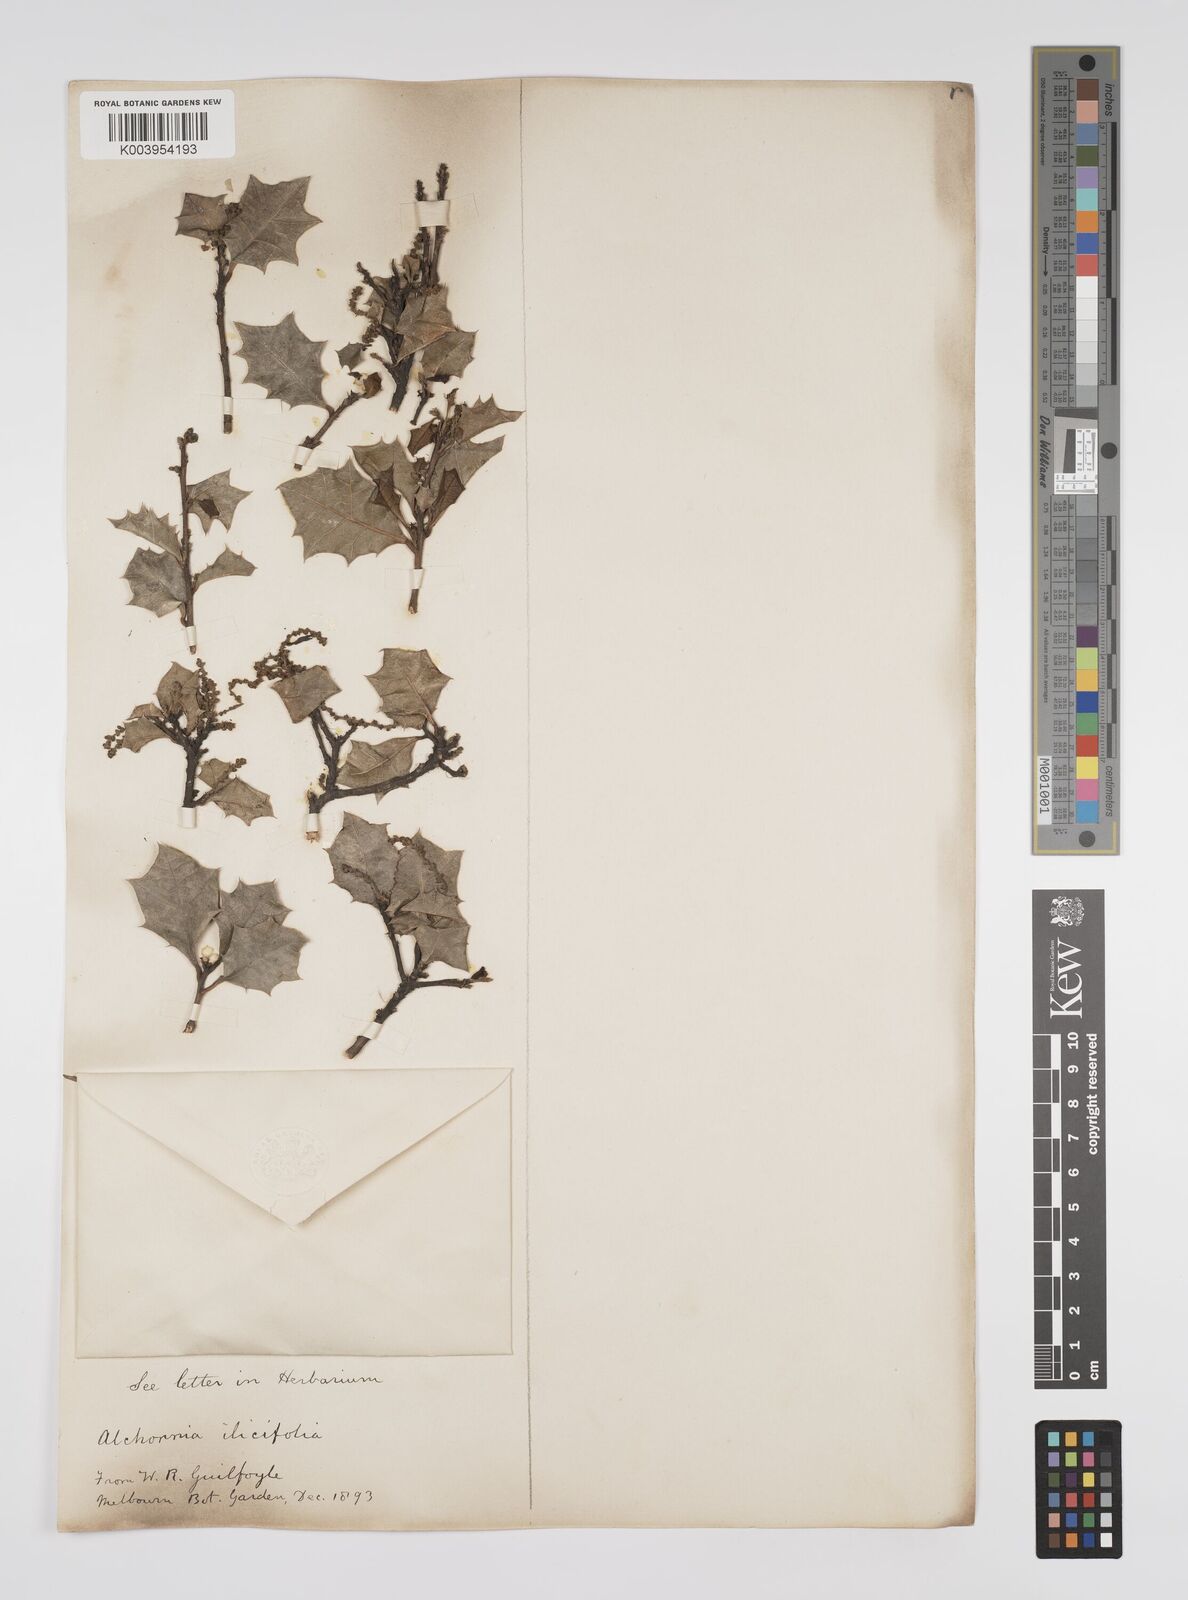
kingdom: Plantae
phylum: Tracheophyta
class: Magnoliopsida
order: Malpighiales
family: Euphorbiaceae
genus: Alchornea
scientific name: Alchornea ilicifolia
